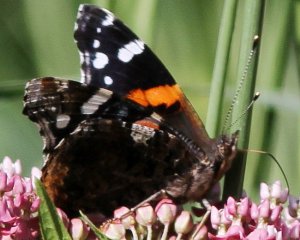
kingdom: Animalia
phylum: Arthropoda
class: Insecta
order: Lepidoptera
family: Nymphalidae
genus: Vanessa
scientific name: Vanessa atalanta
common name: Red Admiral
